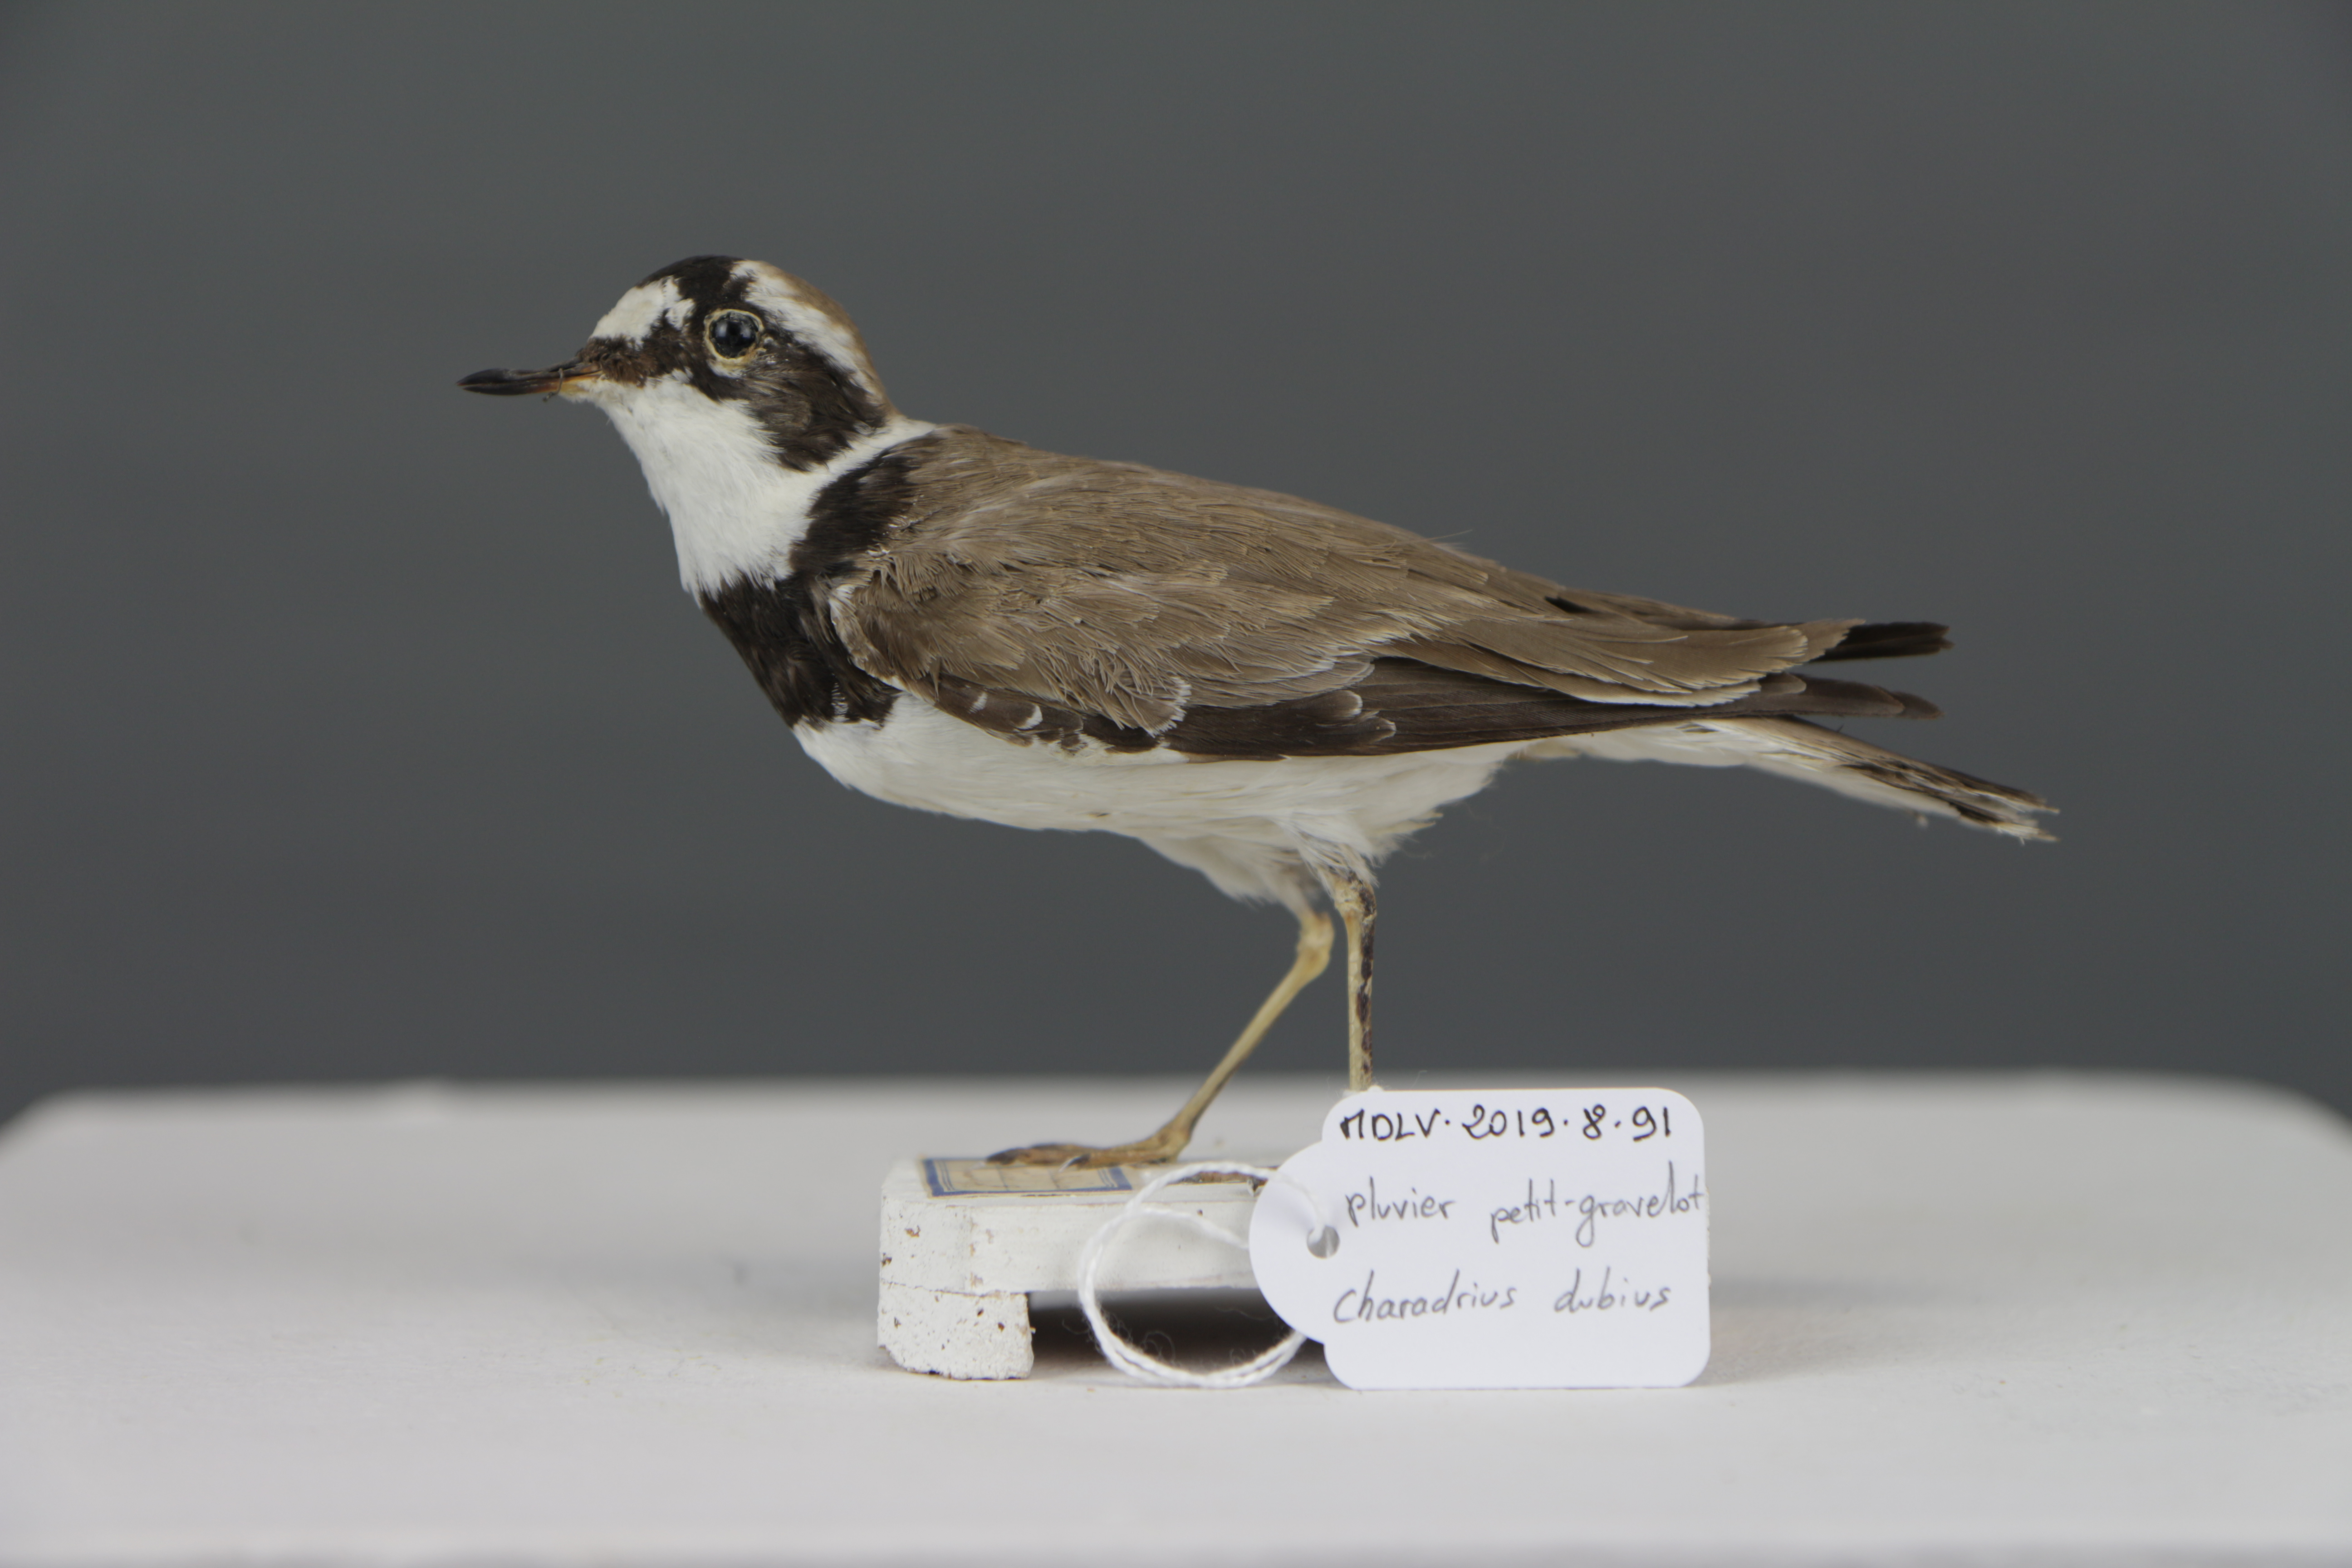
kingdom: Animalia
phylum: Chordata
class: Aves
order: Charadriiformes
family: Charadriidae
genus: Charadrius
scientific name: Charadrius dubius
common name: Little ringed plover
